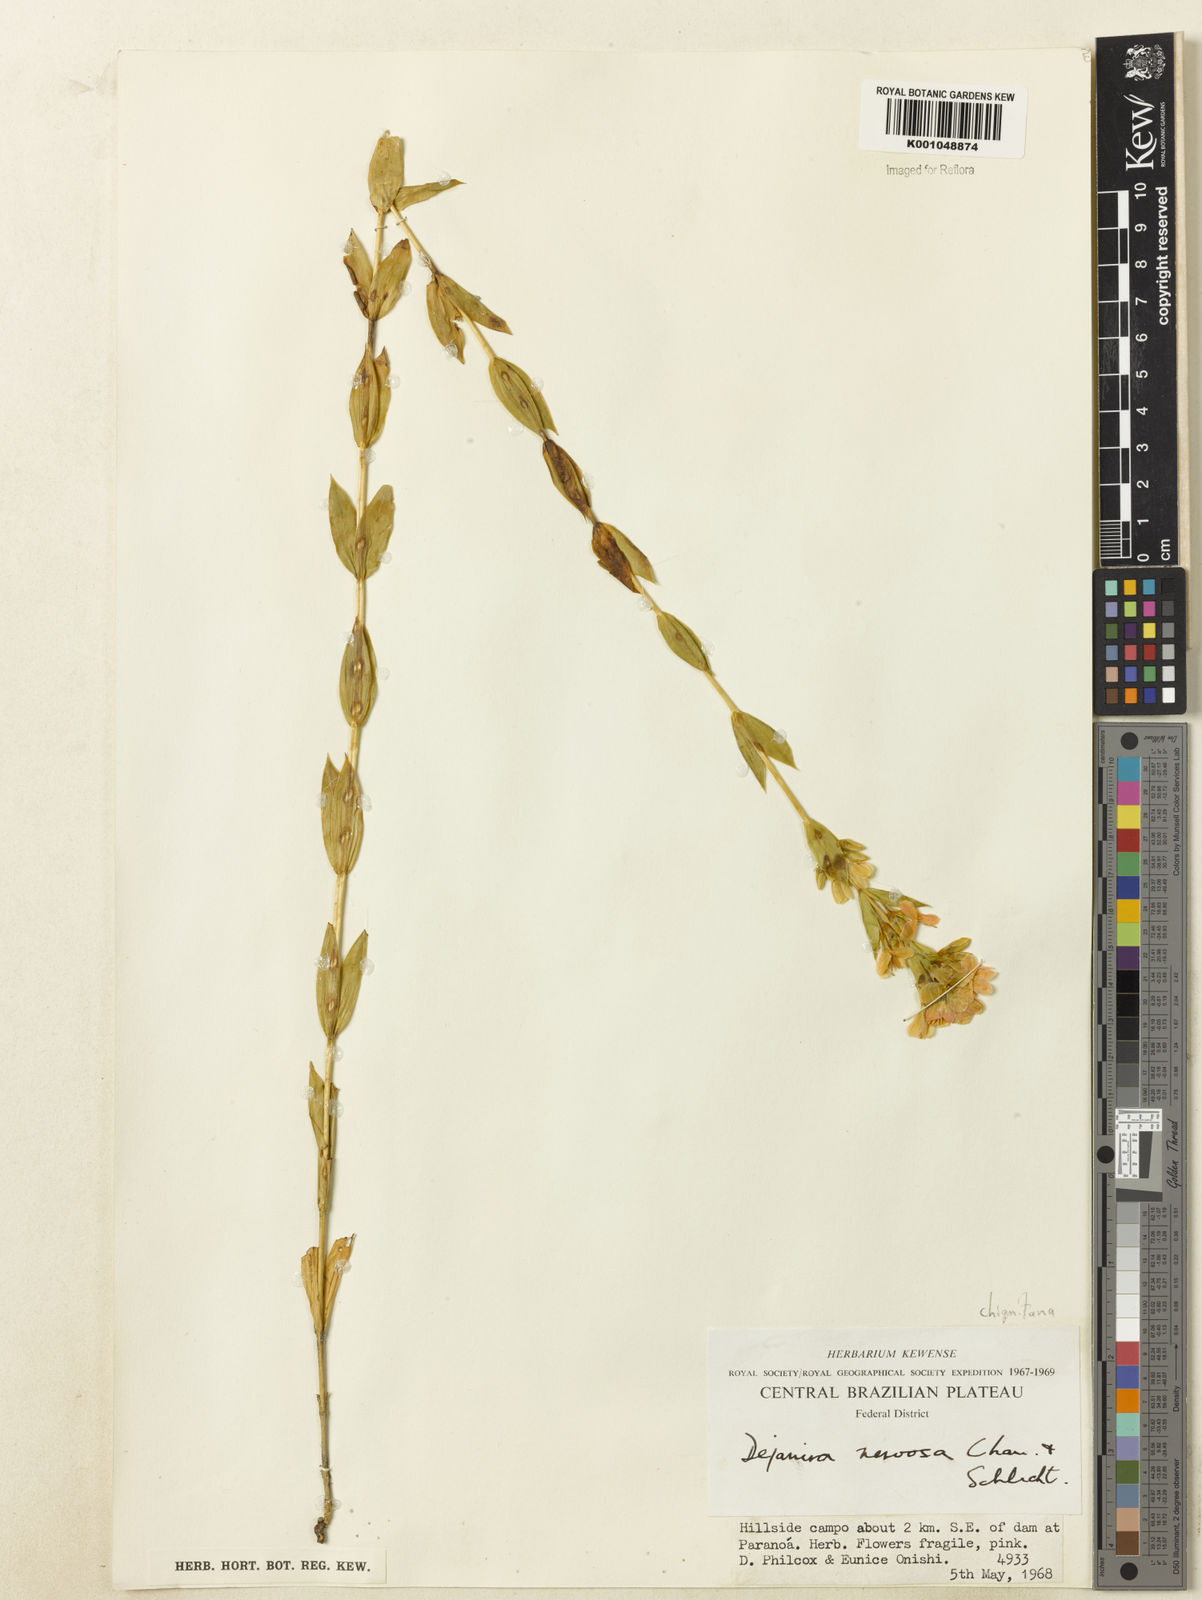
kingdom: Plantae
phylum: Tracheophyta
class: Magnoliopsida
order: Gentianales
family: Gentianaceae
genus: Deianira
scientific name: Deianira chiquitana
